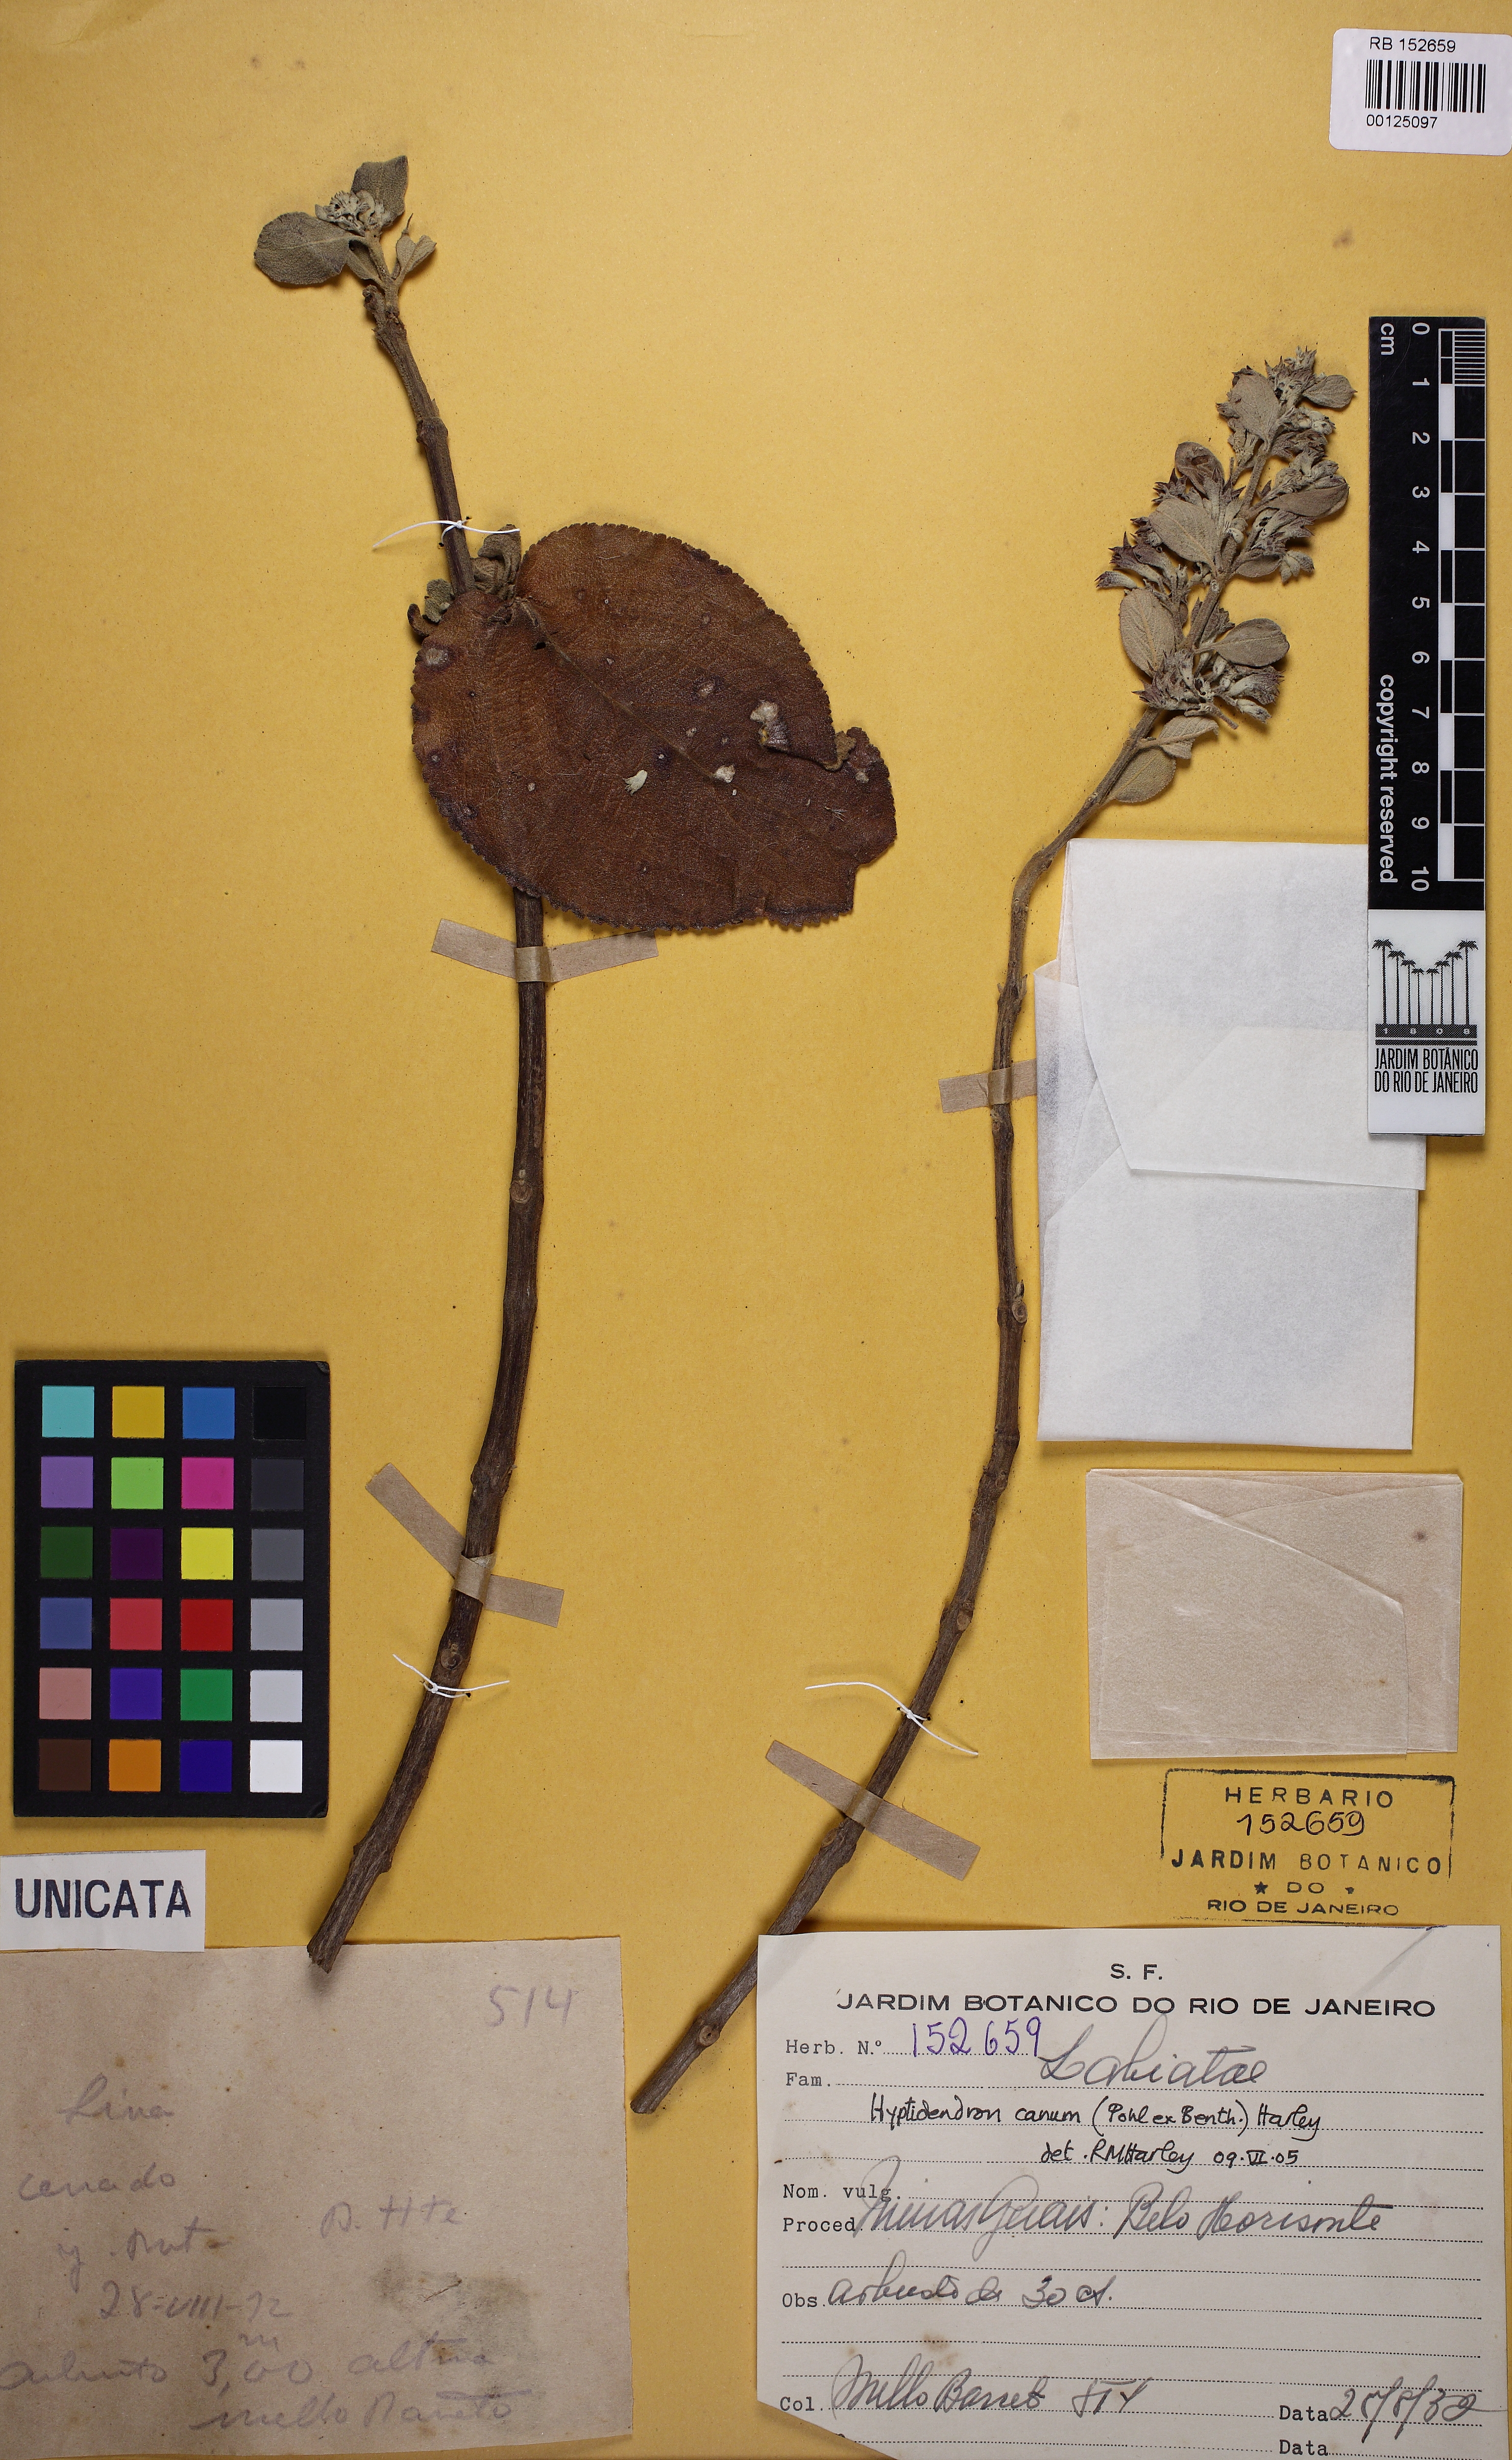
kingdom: Plantae
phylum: Tracheophyta
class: Magnoliopsida
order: Lamiales
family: Lamiaceae
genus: Hyptidendron
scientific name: Hyptidendron canum
